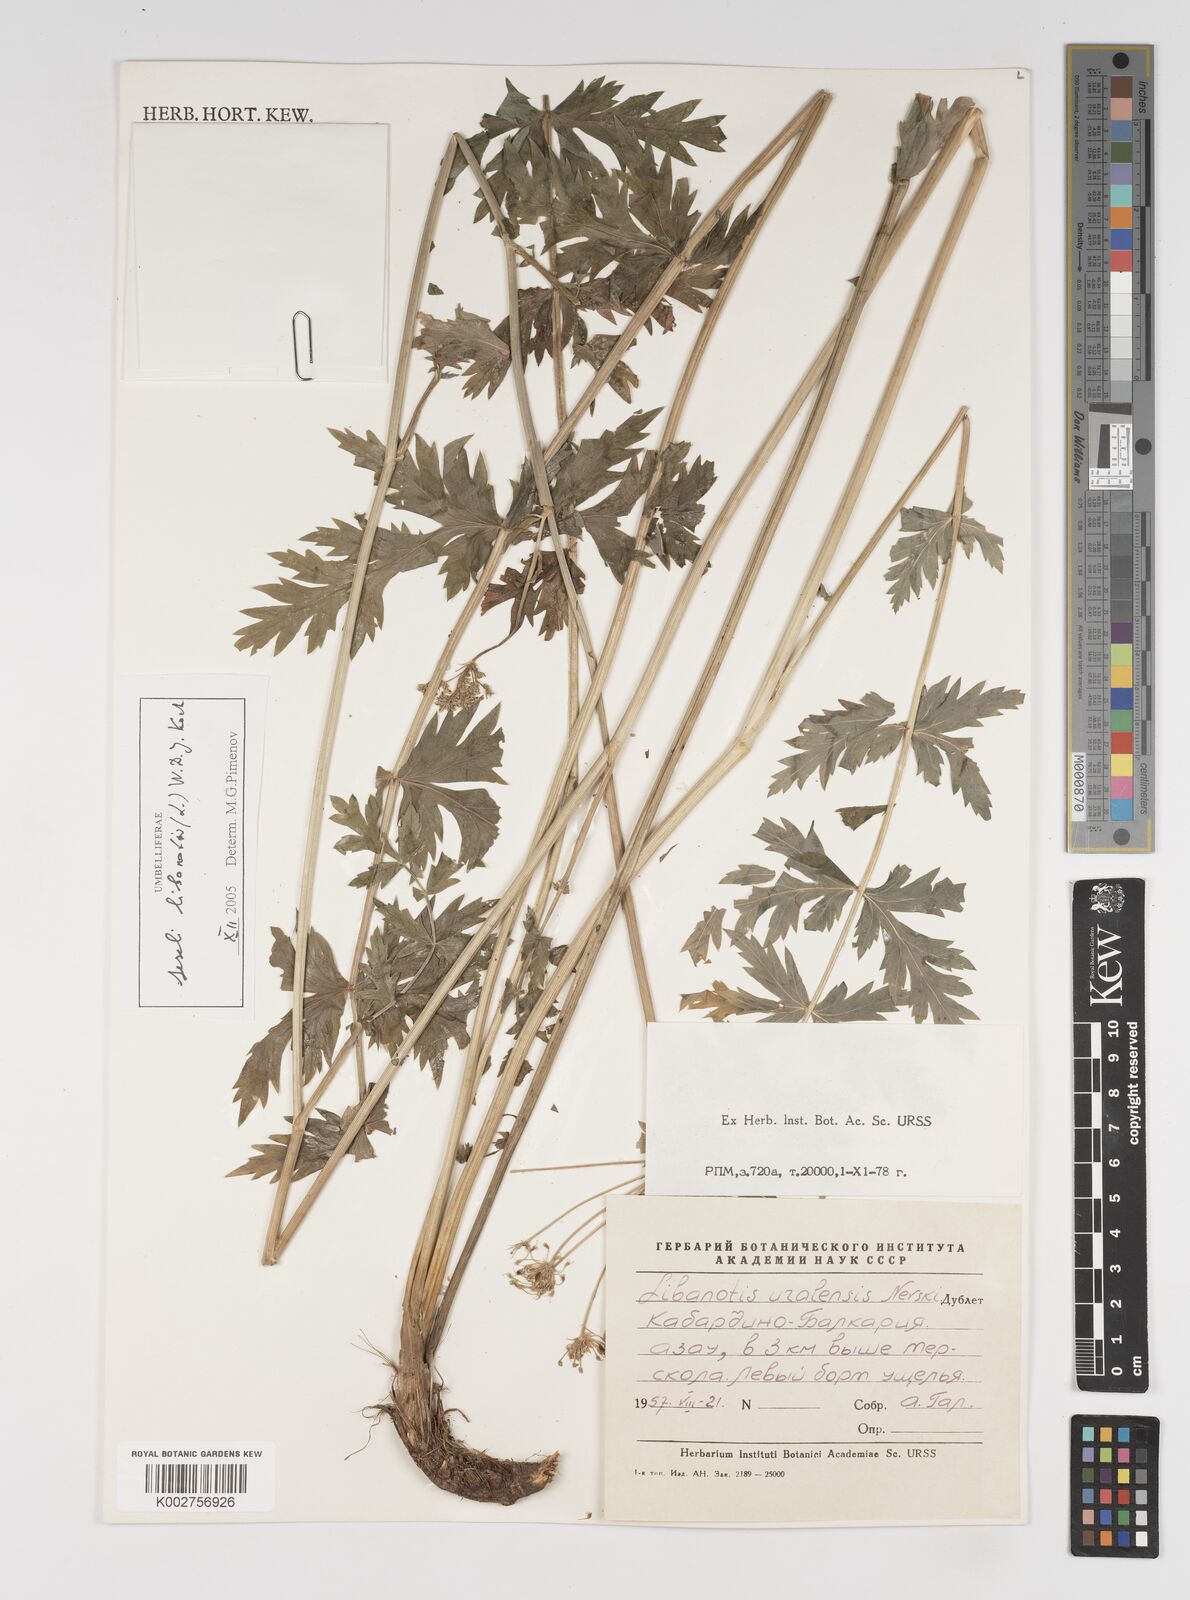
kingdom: Plantae
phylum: Tracheophyta
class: Magnoliopsida
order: Apiales
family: Apiaceae
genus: Seseli
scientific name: Seseli libanotis
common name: Mooncarrot
